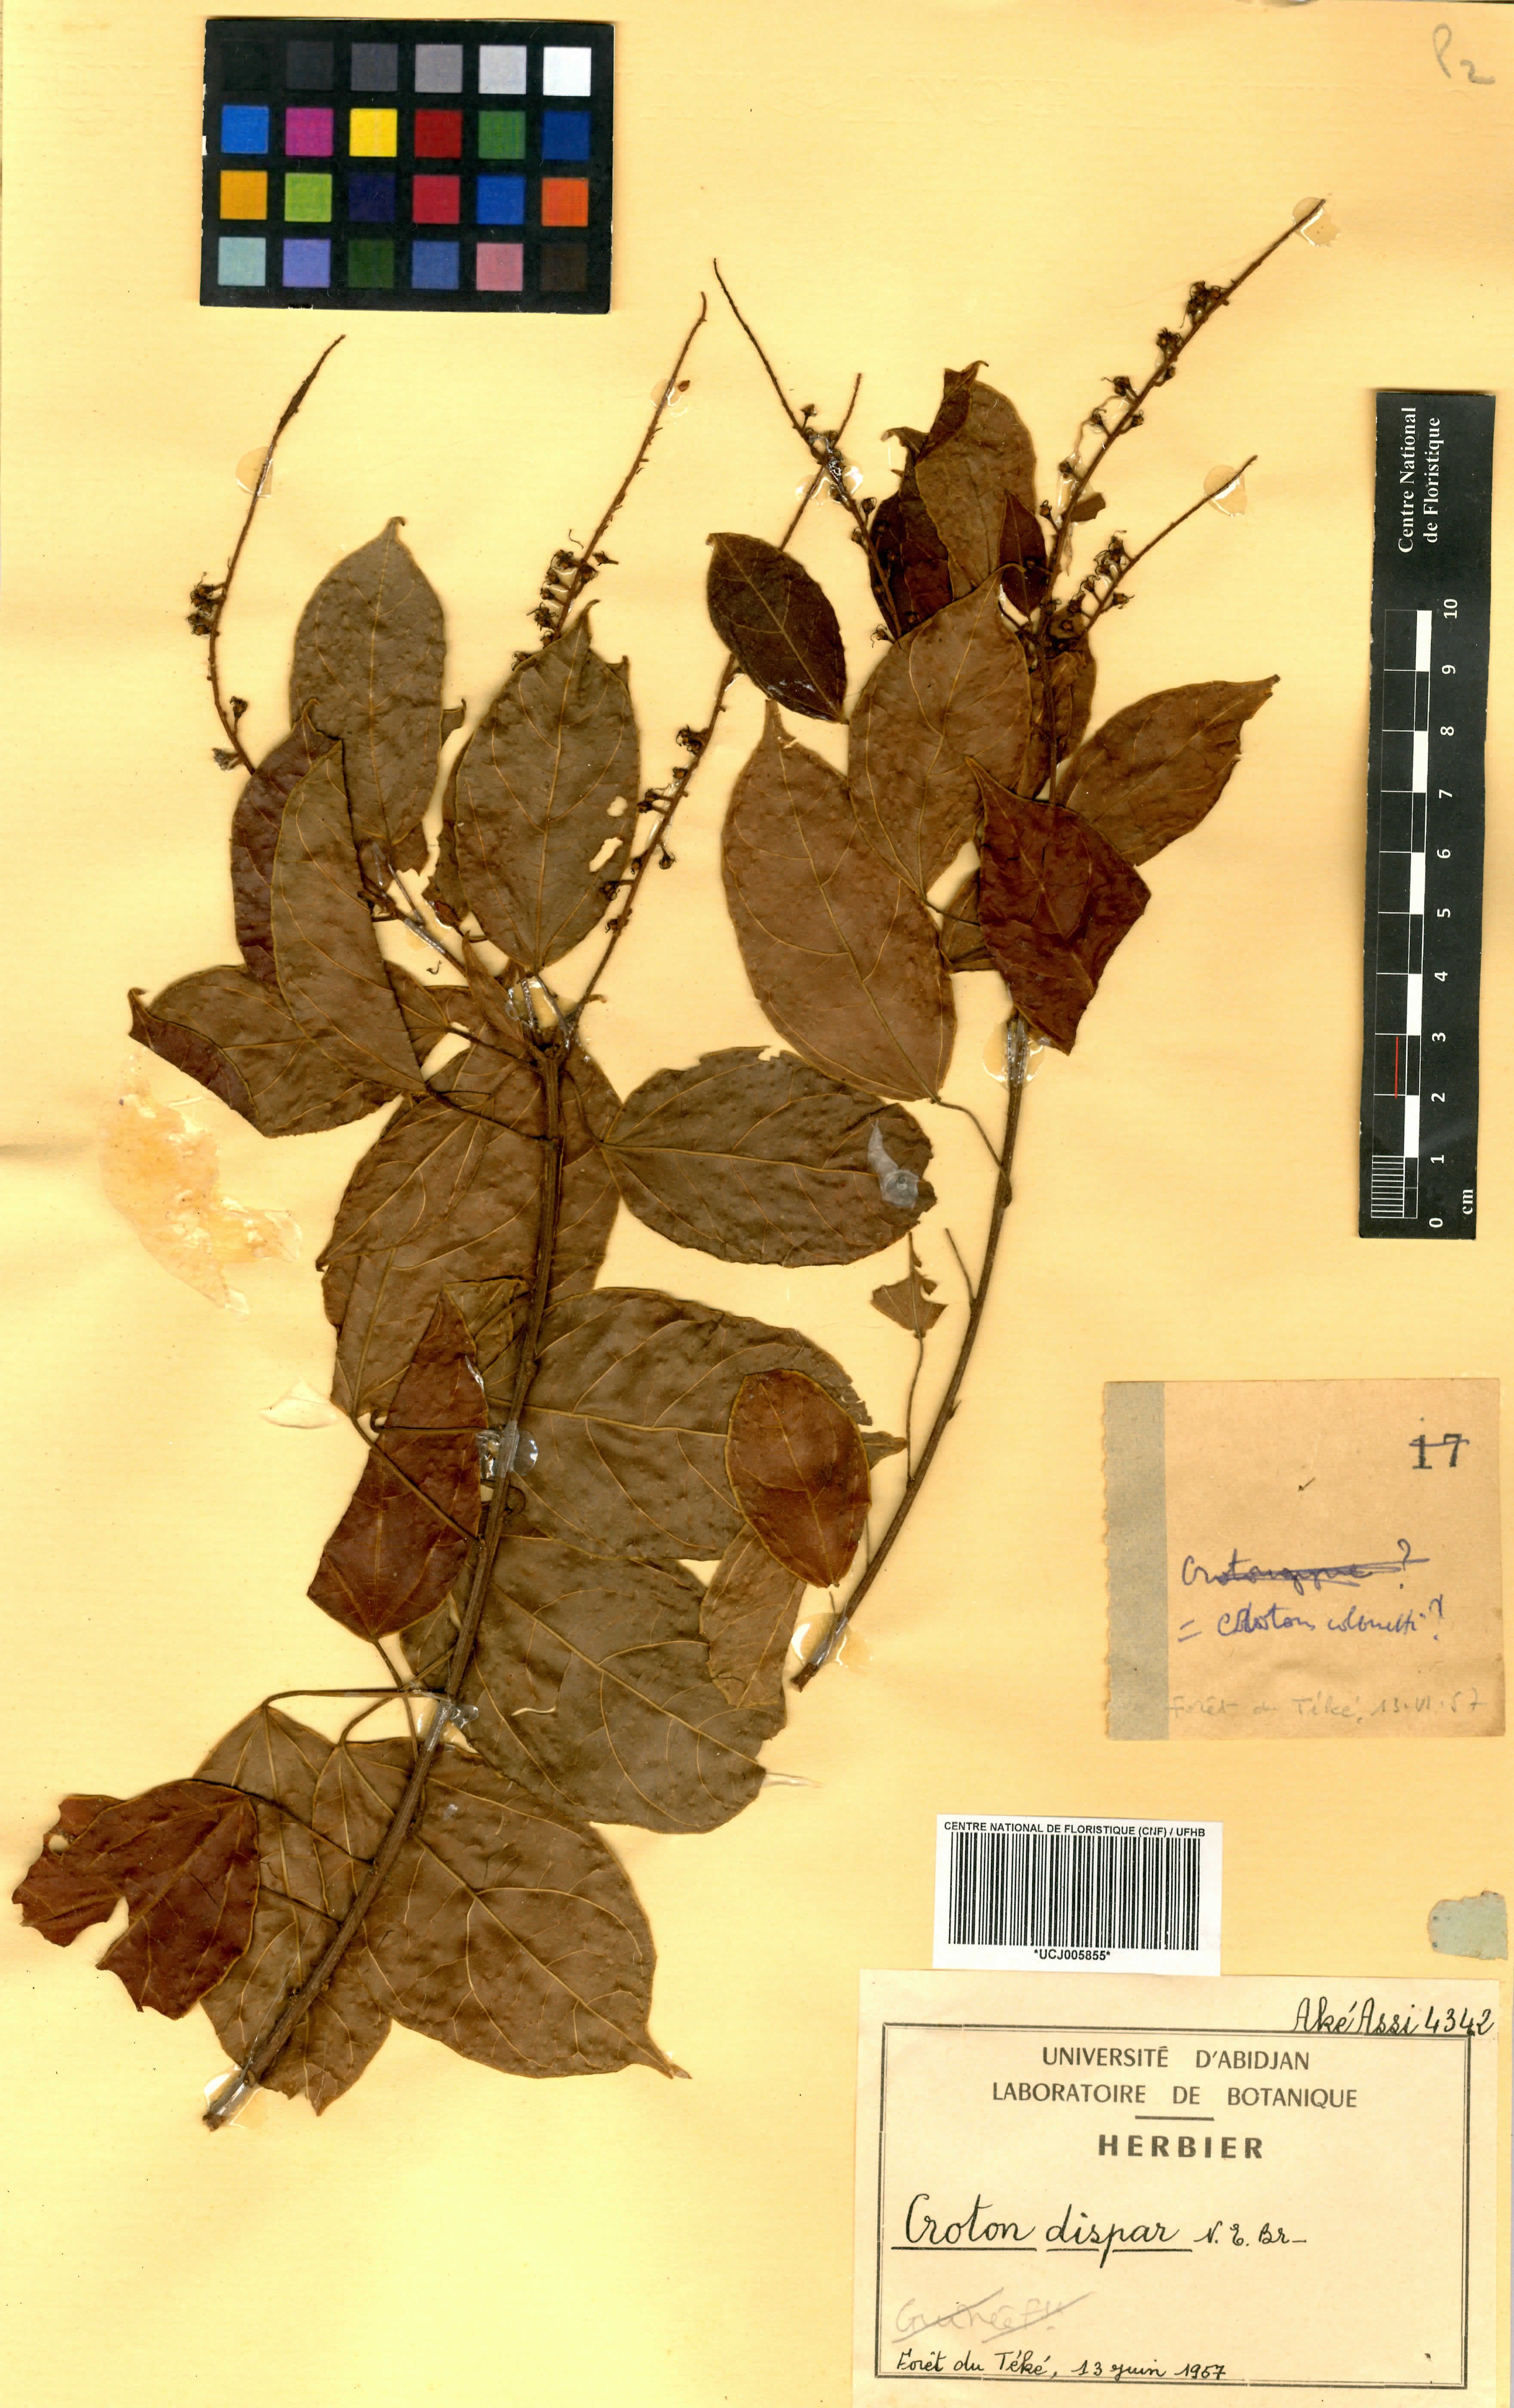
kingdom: Plantae
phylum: Tracheophyta
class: Magnoliopsida
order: Malpighiales
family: Euphorbiaceae
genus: Croton
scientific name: Croton dispar
